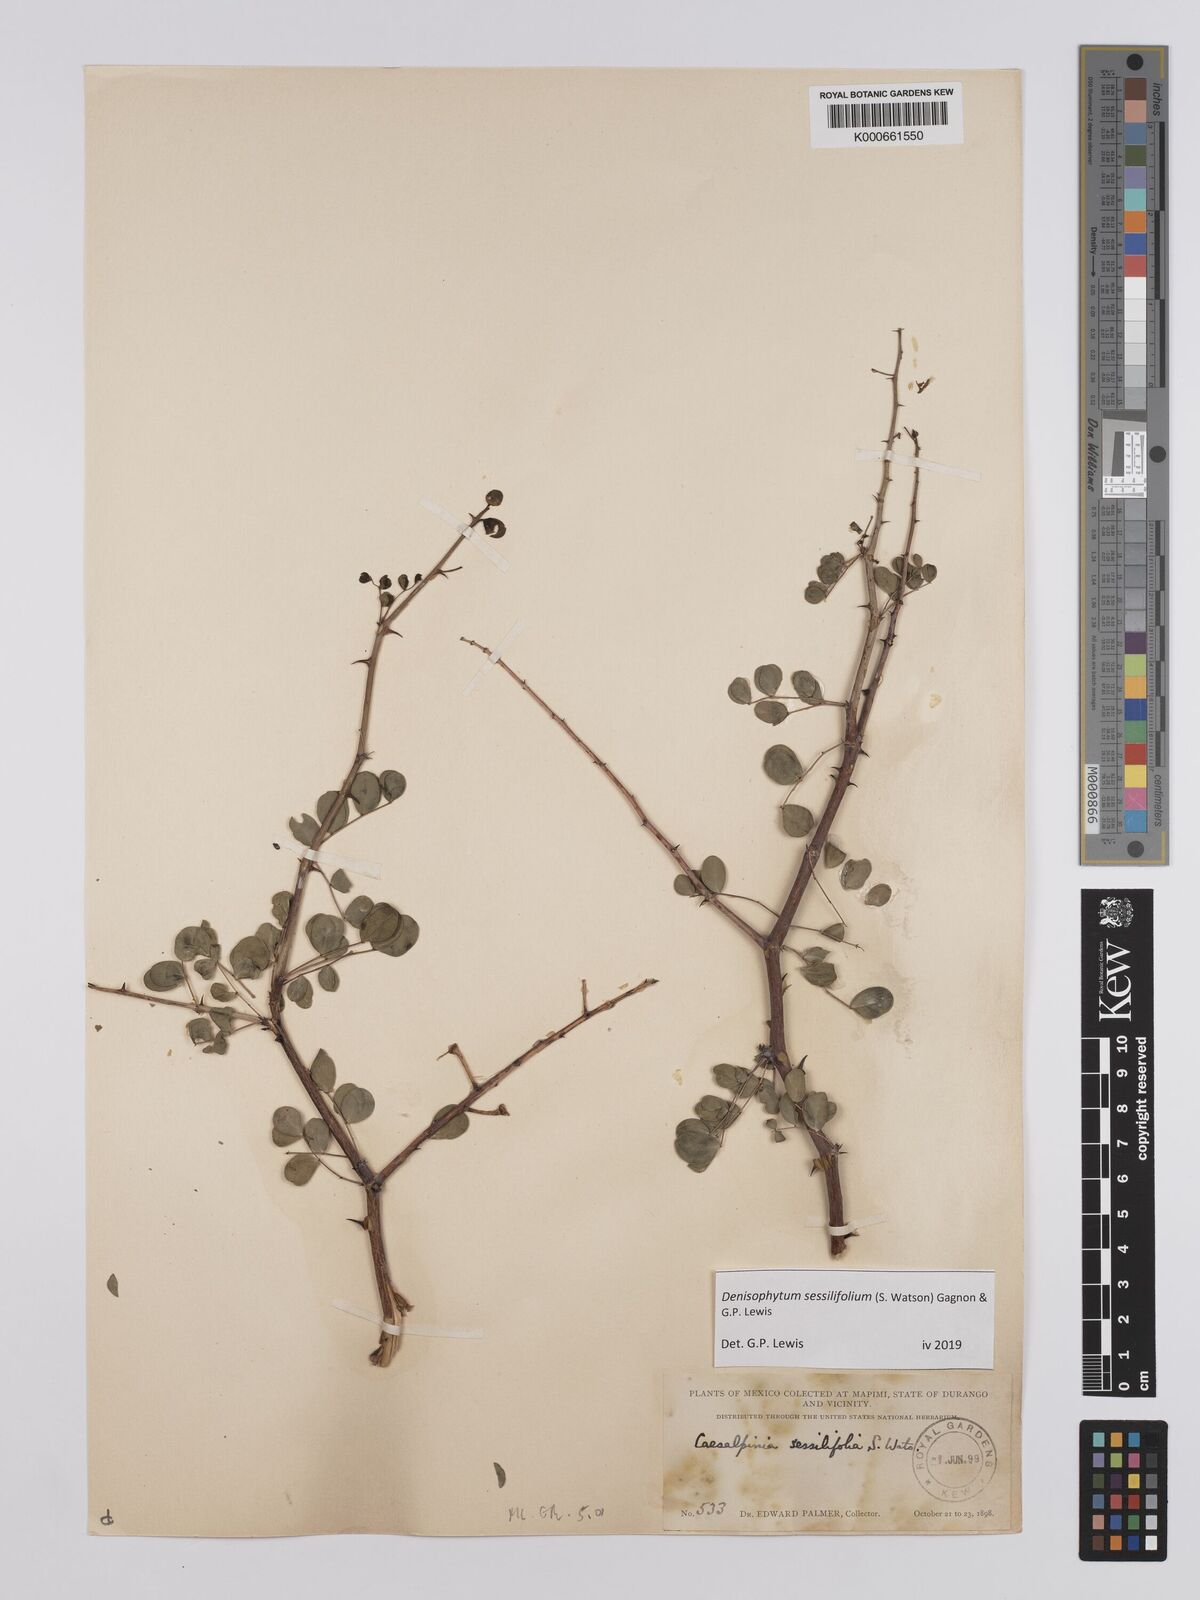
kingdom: Plantae
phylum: Tracheophyta
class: Magnoliopsida
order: Fabales
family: Fabaceae
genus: Denisophytum
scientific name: Denisophytum sessilifolium
